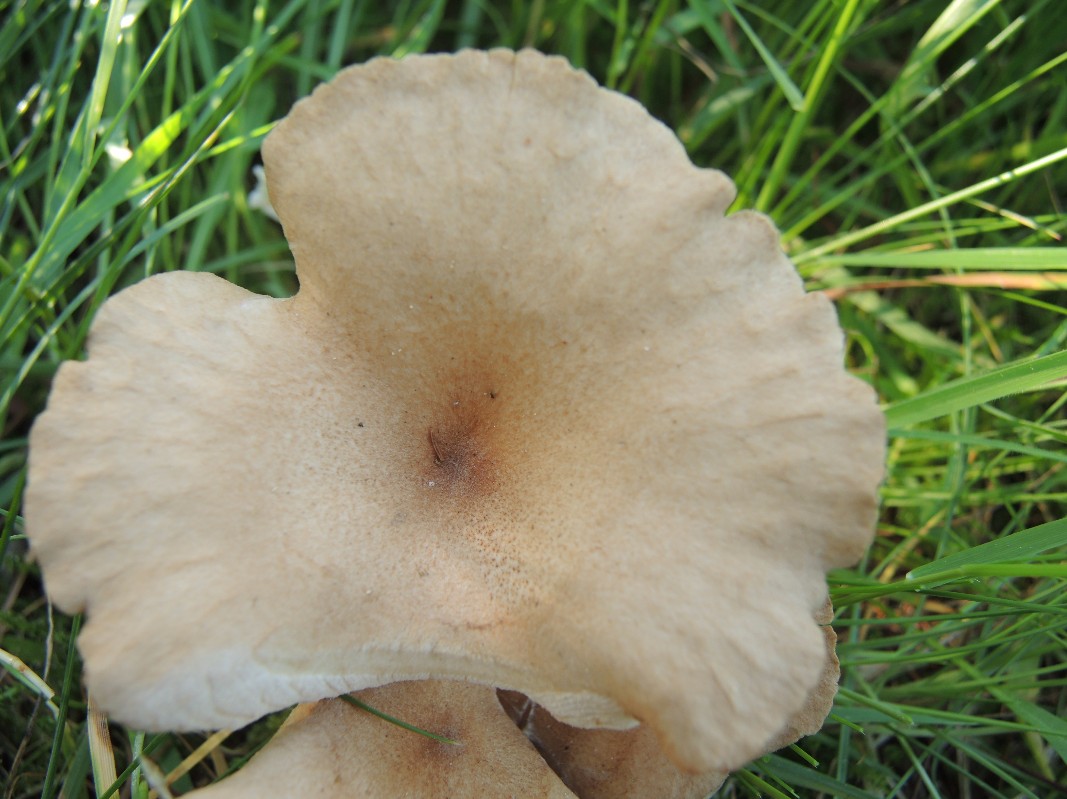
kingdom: Fungi
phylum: Basidiomycota
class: Agaricomycetes
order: Agaricales
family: Tricholomataceae
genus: Infundibulicybe
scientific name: Infundibulicybe squamulosa
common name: småskællet tragthat
